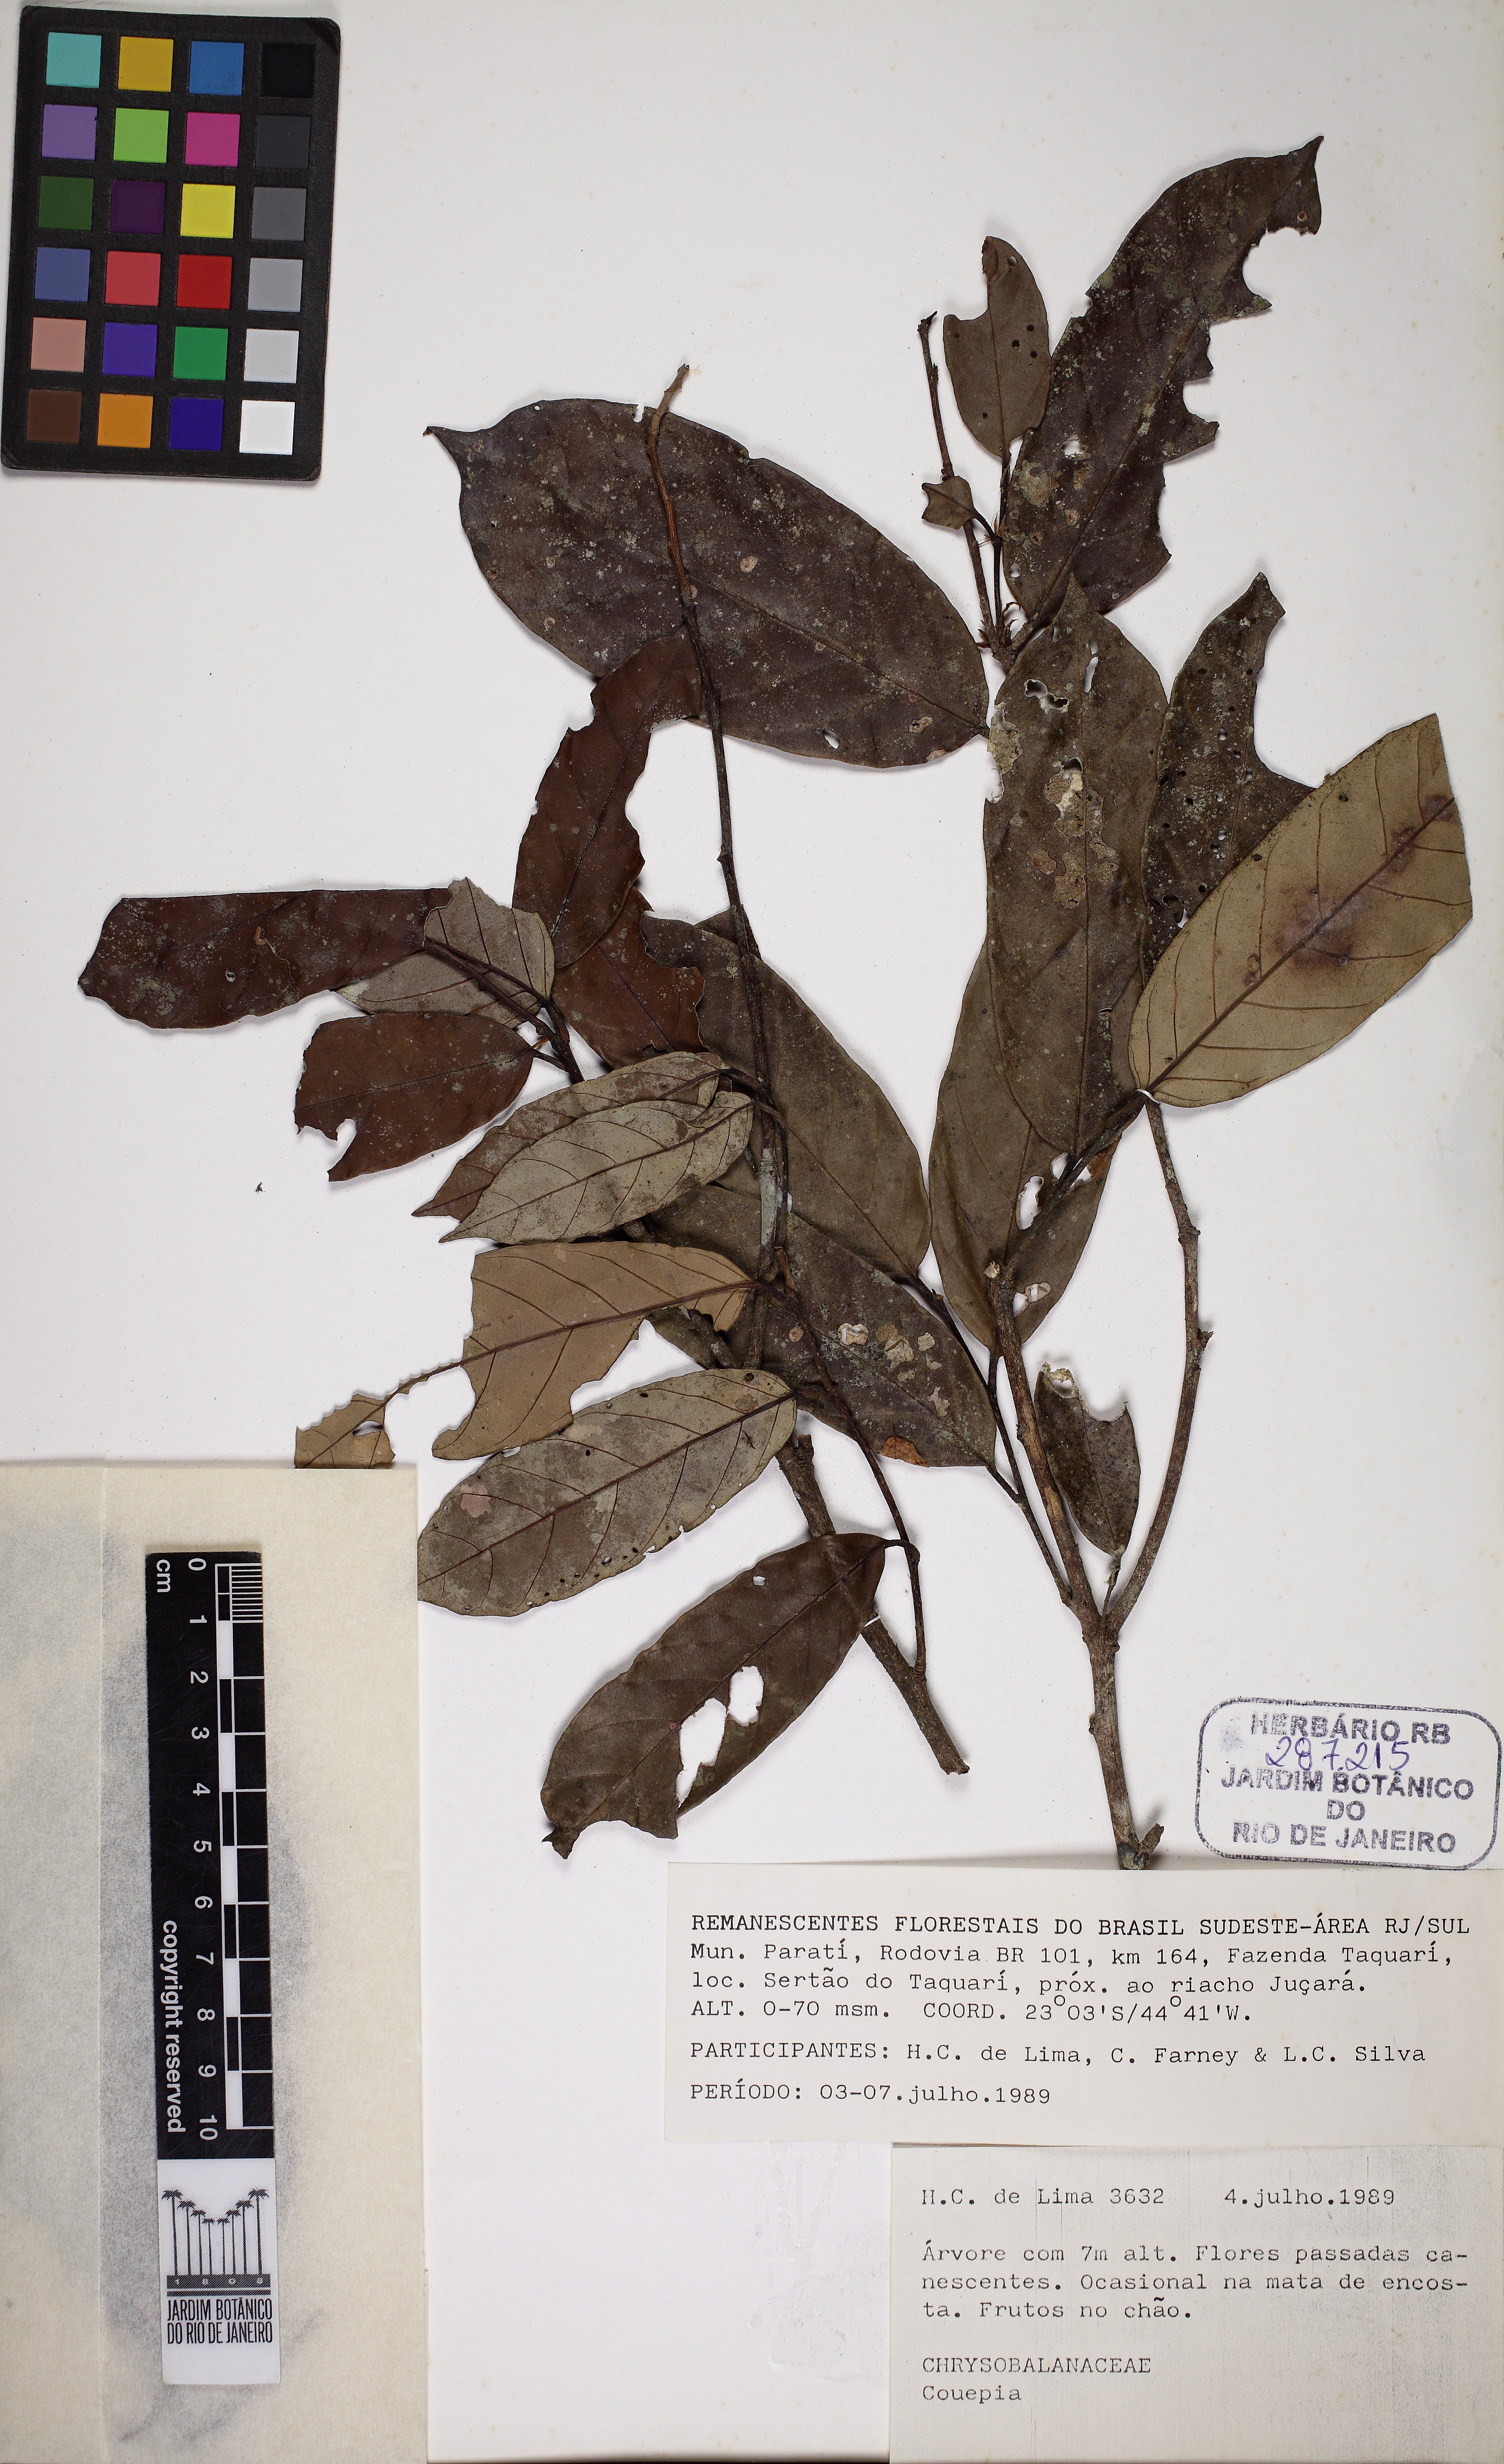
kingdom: Plantae
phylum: Tracheophyta
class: Magnoliopsida
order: Malpighiales
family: Chrysobalanaceae
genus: Couepia
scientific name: Couepia venosa
